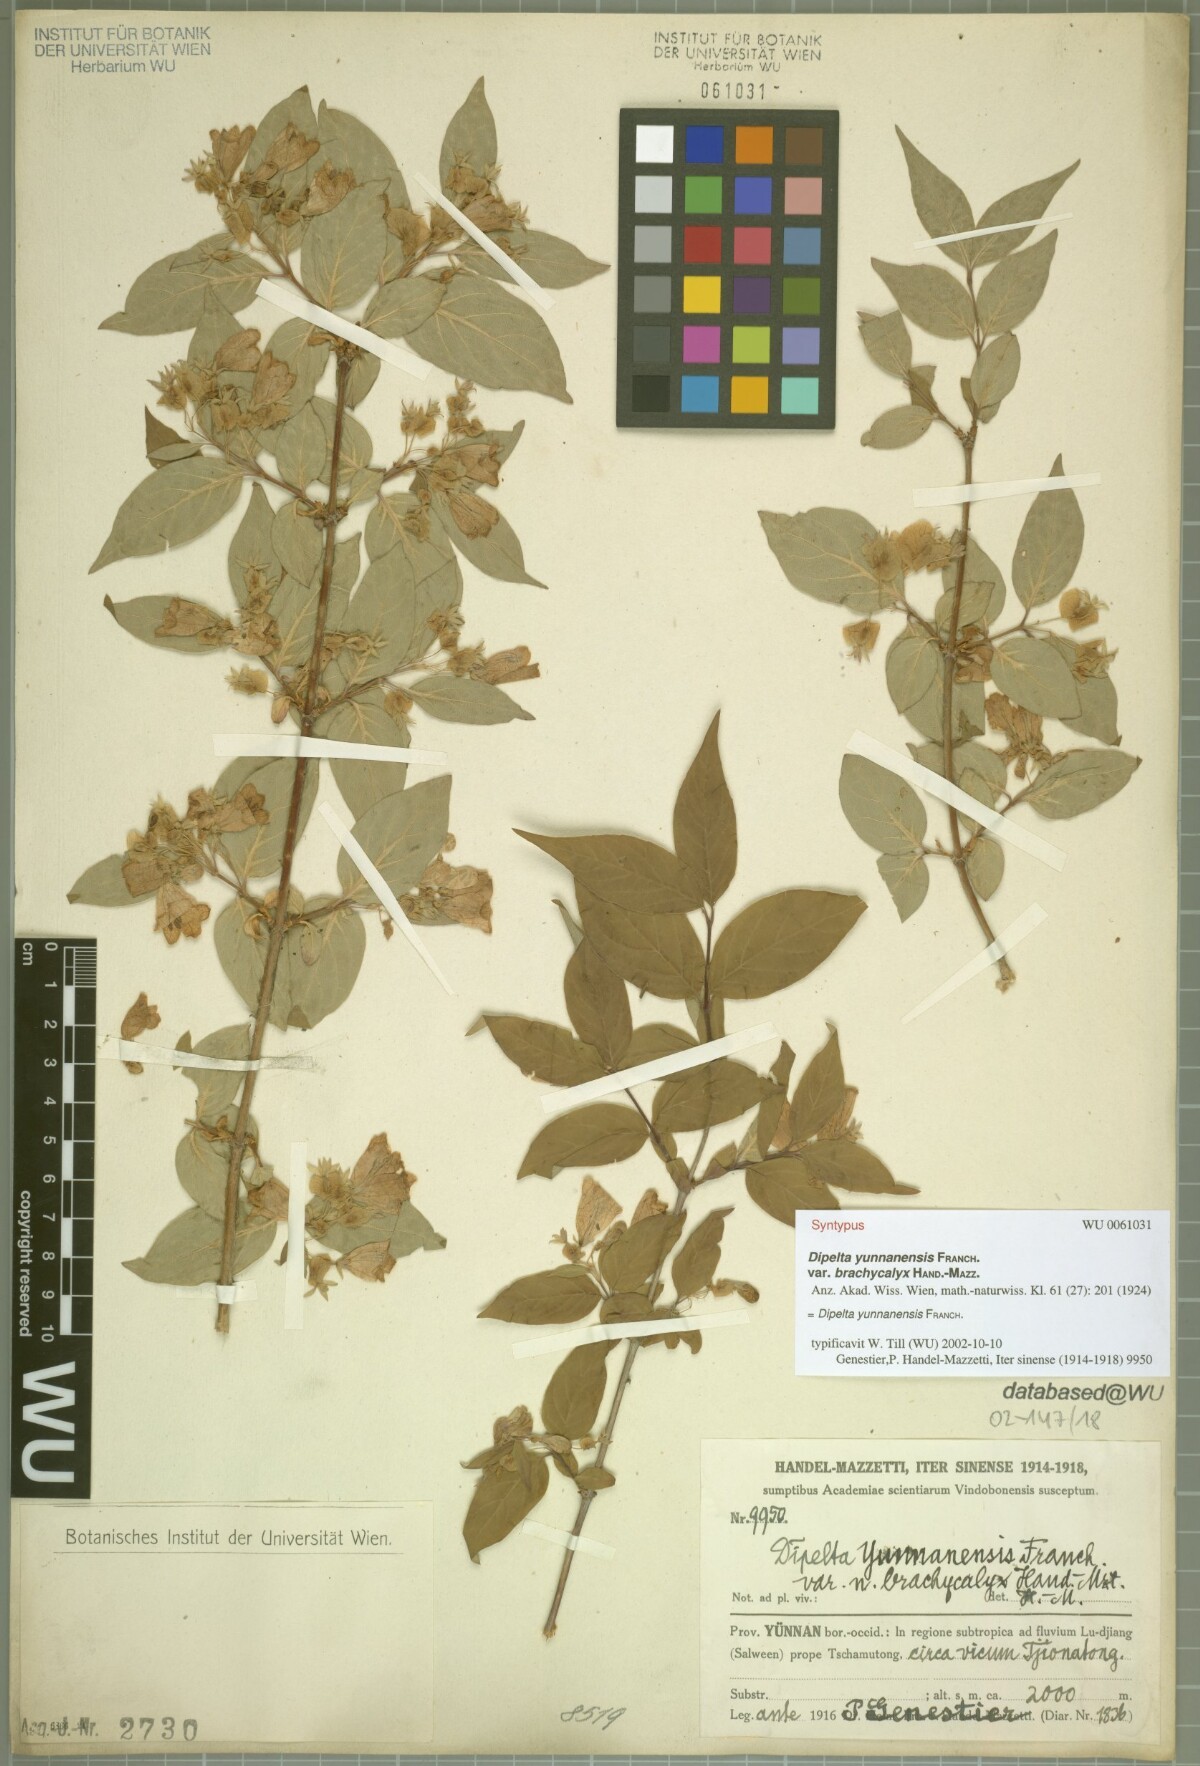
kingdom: Plantae
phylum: Tracheophyta
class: Magnoliopsida
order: Dipsacales
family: Caprifoliaceae
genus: Dipelta
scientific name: Dipelta yunnanensis
